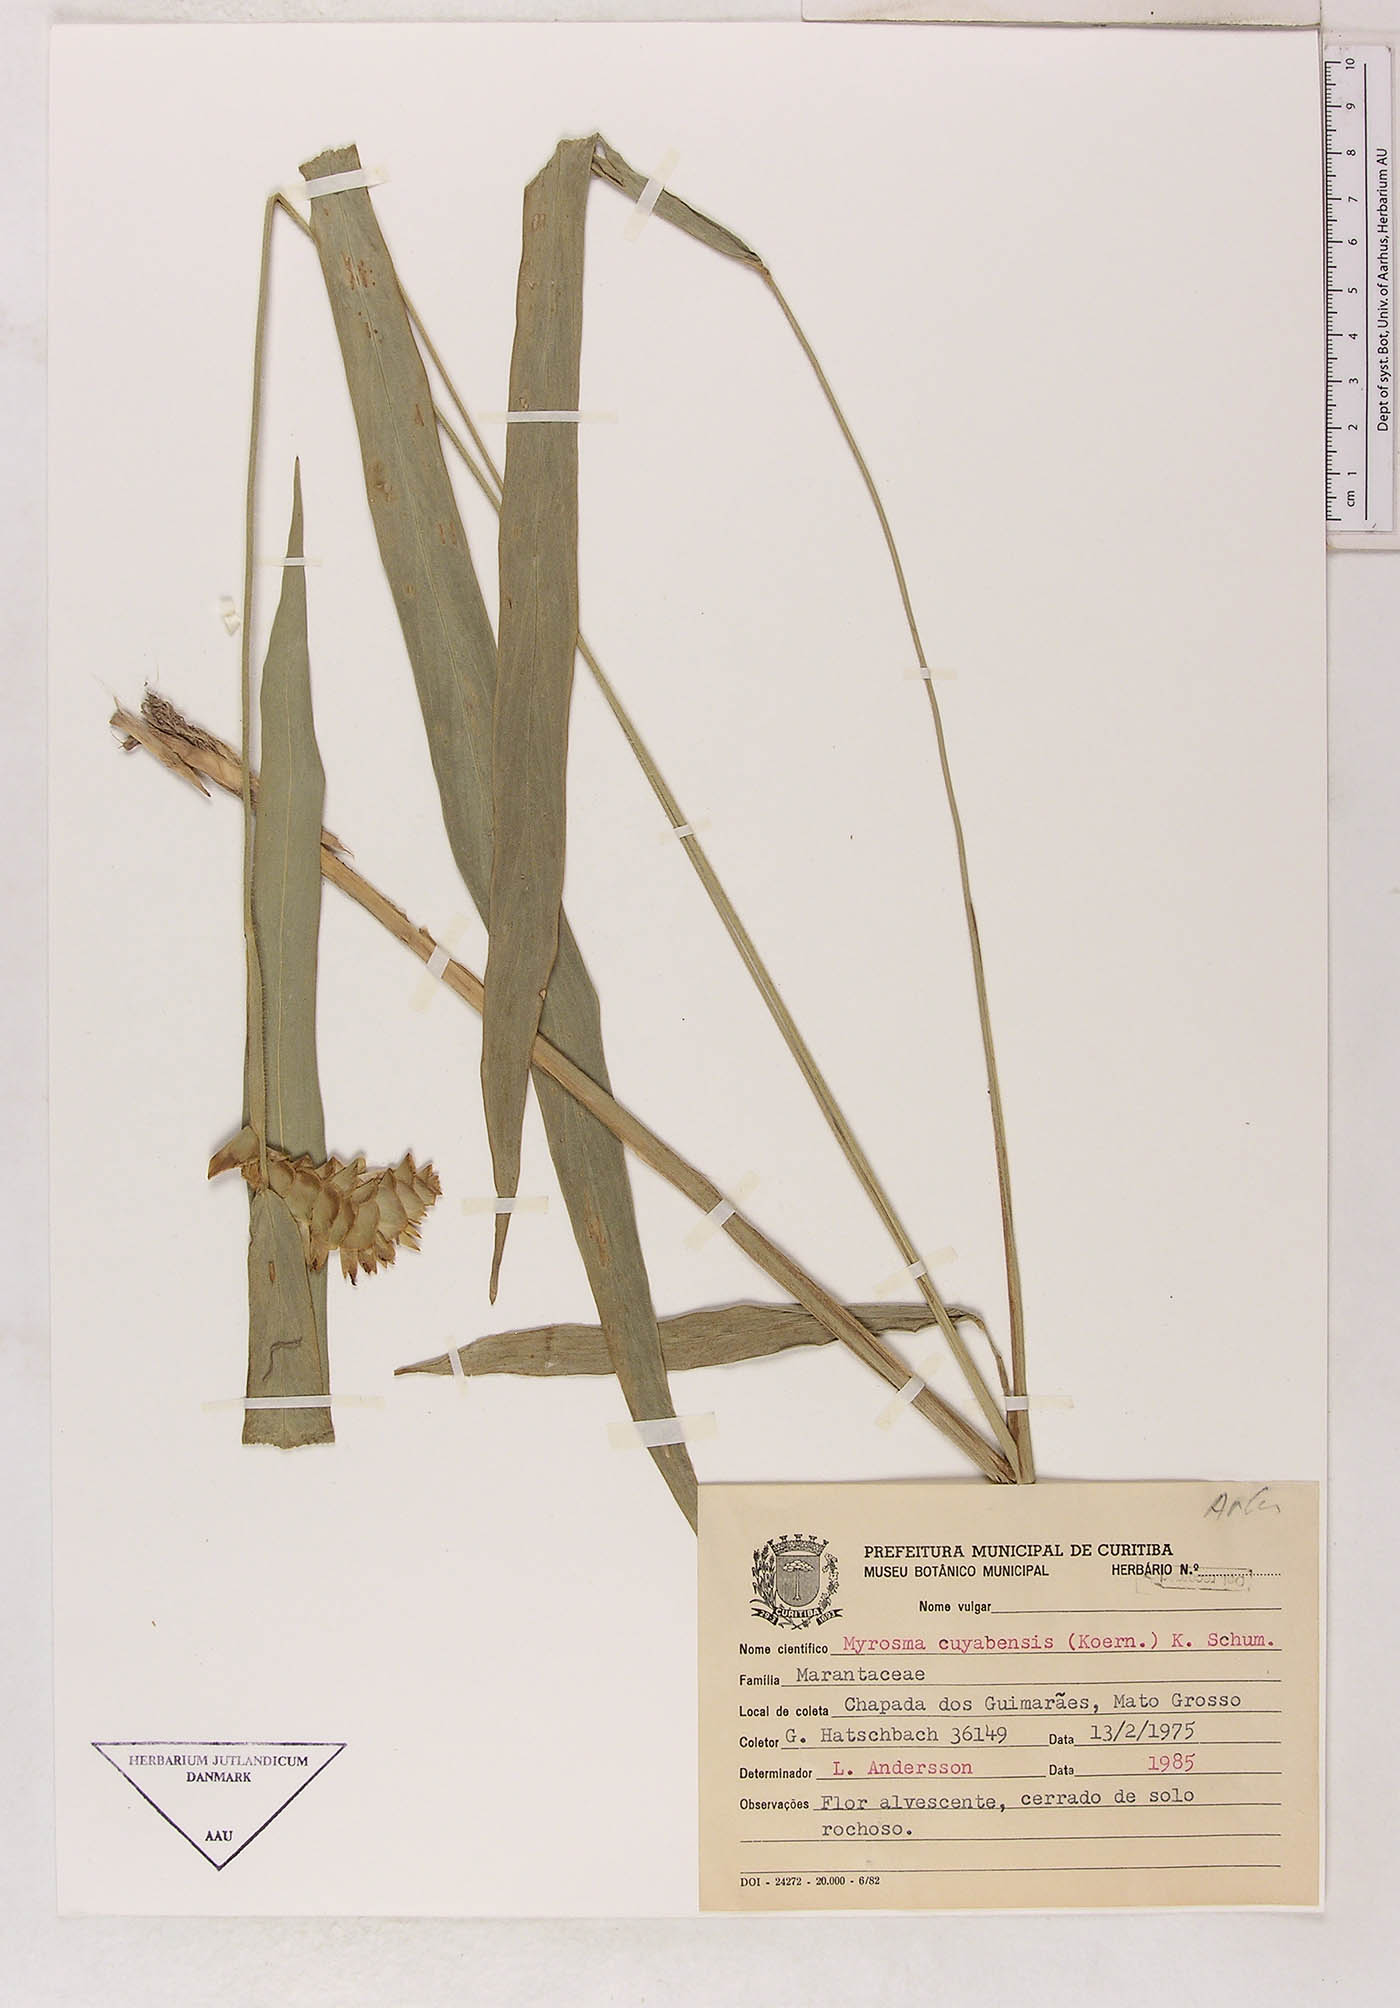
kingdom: Plantae
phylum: Tracheophyta
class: Liliopsida
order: Zingiberales
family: Marantaceae
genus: Myrosma
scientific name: Myrosma cannifolia
